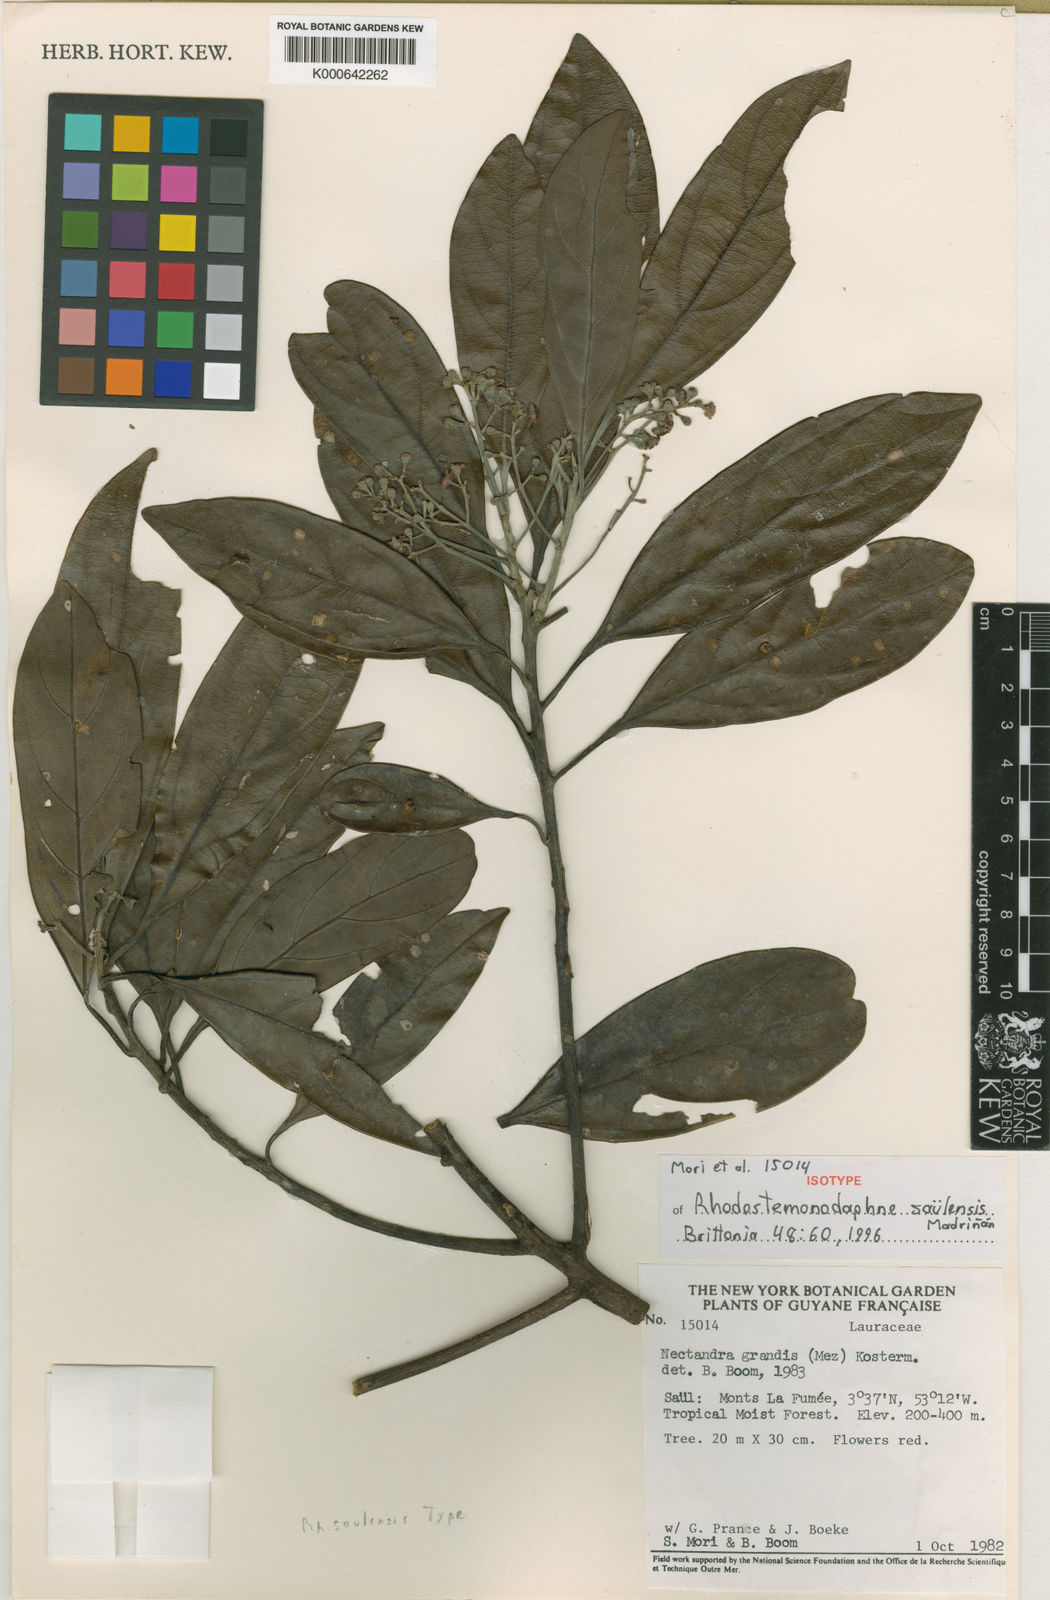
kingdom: Plantae
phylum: Tracheophyta
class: Magnoliopsida
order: Laurales
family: Lauraceae
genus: Rhodostemonodaphne
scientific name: Rhodostemonodaphne
